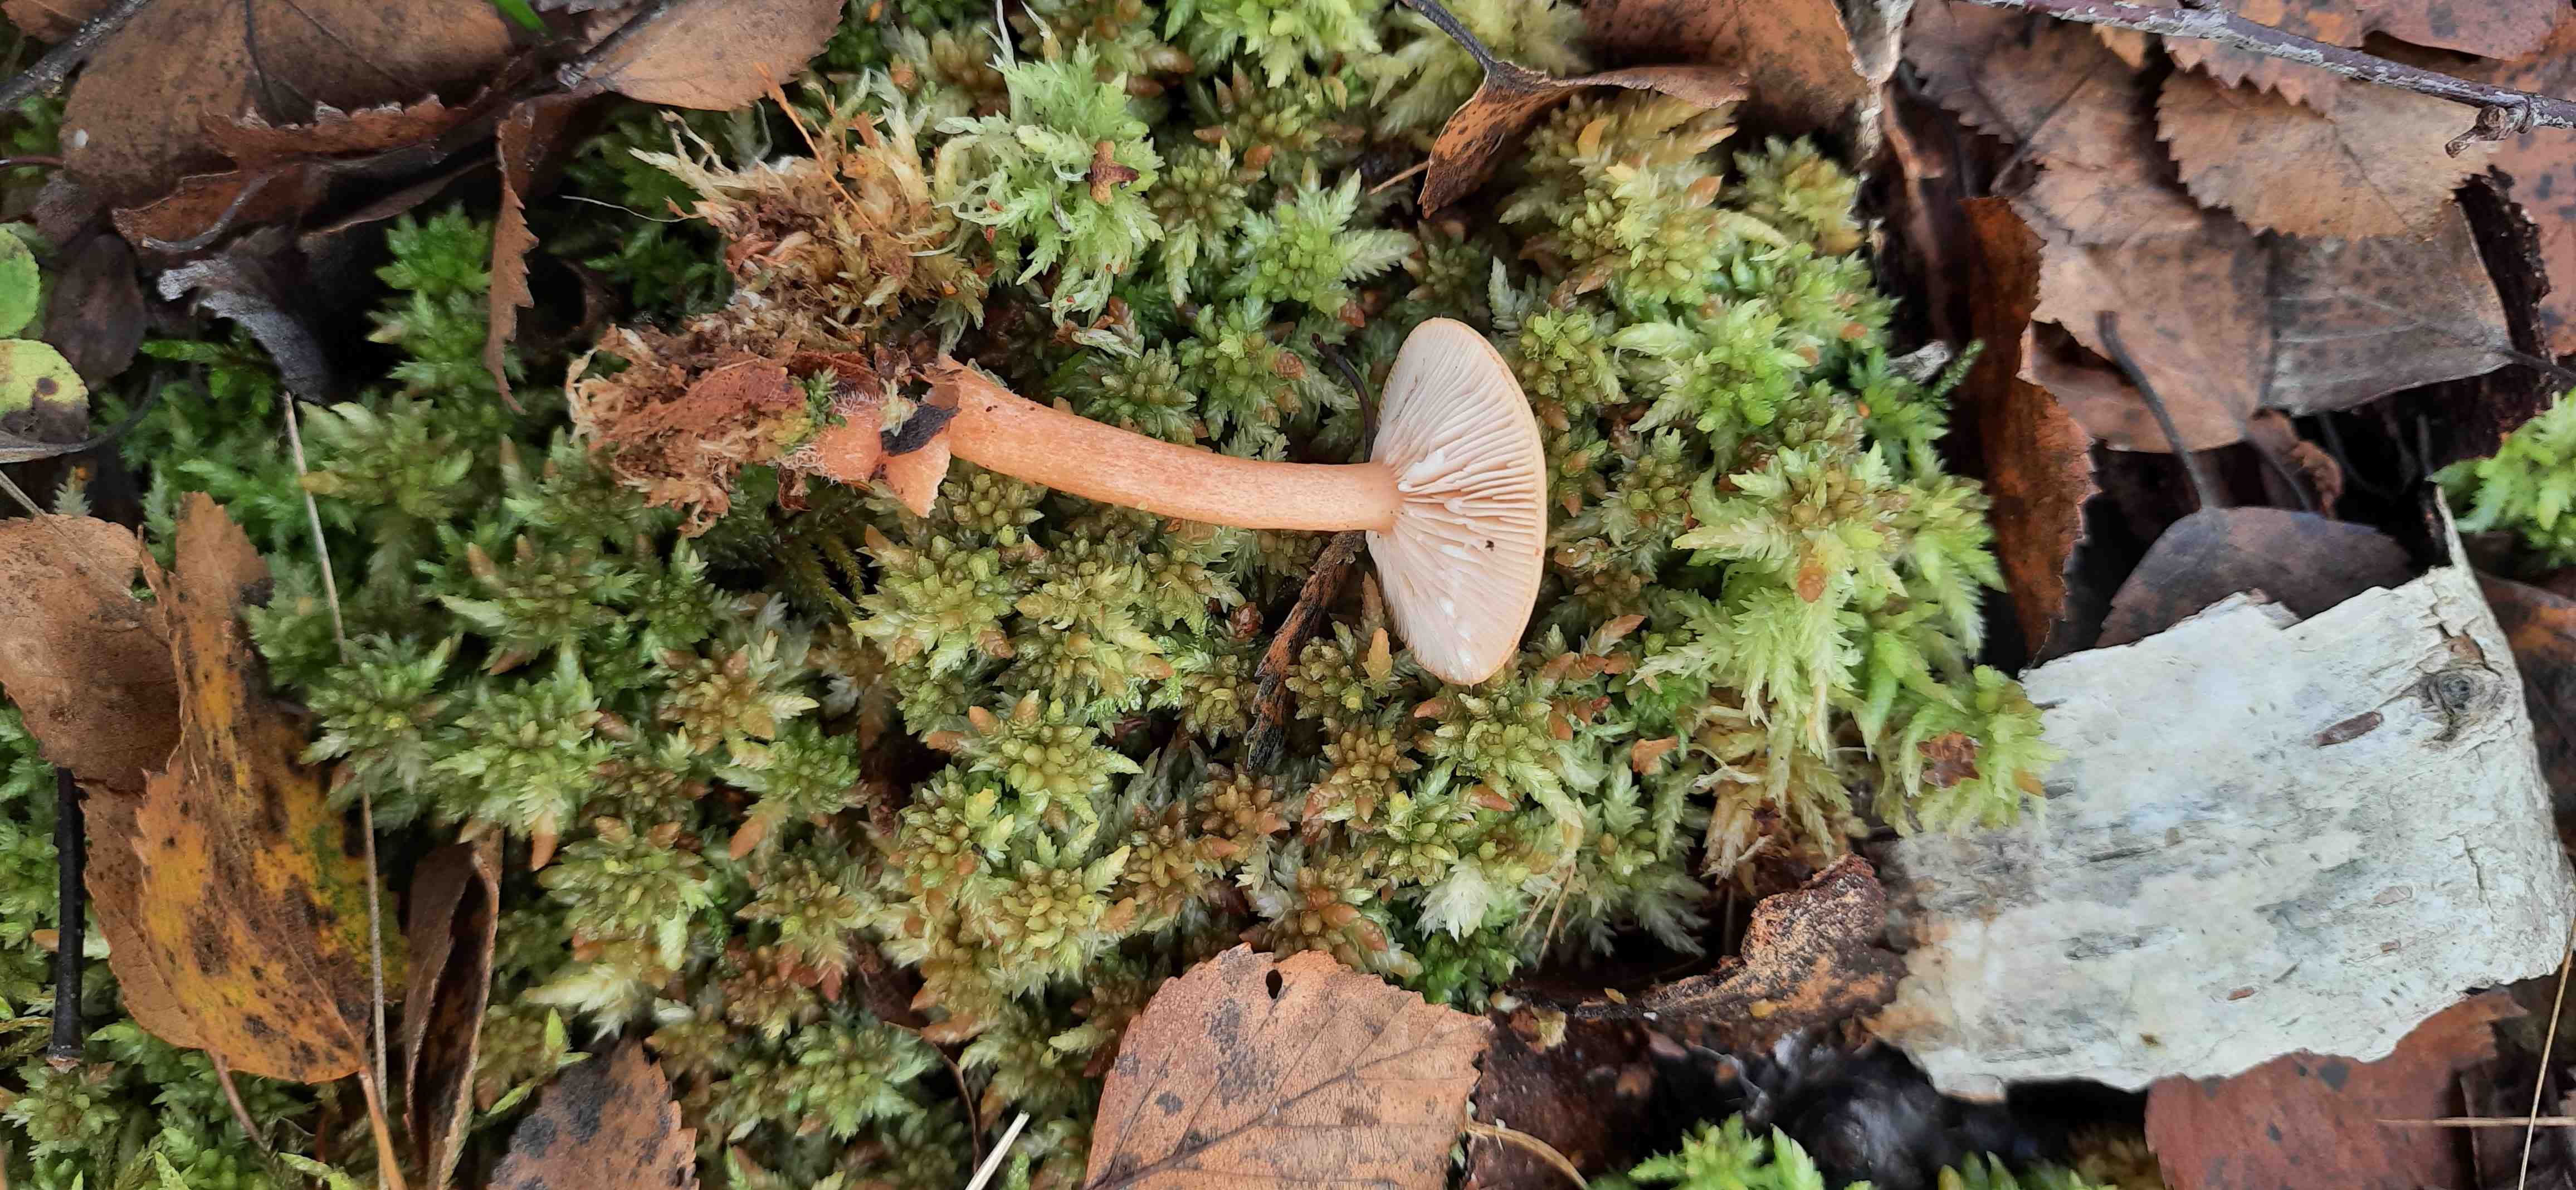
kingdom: Fungi
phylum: Basidiomycota
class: Agaricomycetes
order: Russulales
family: Russulaceae
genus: Lactarius
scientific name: Lactarius tabidus
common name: rynket mælkehat
